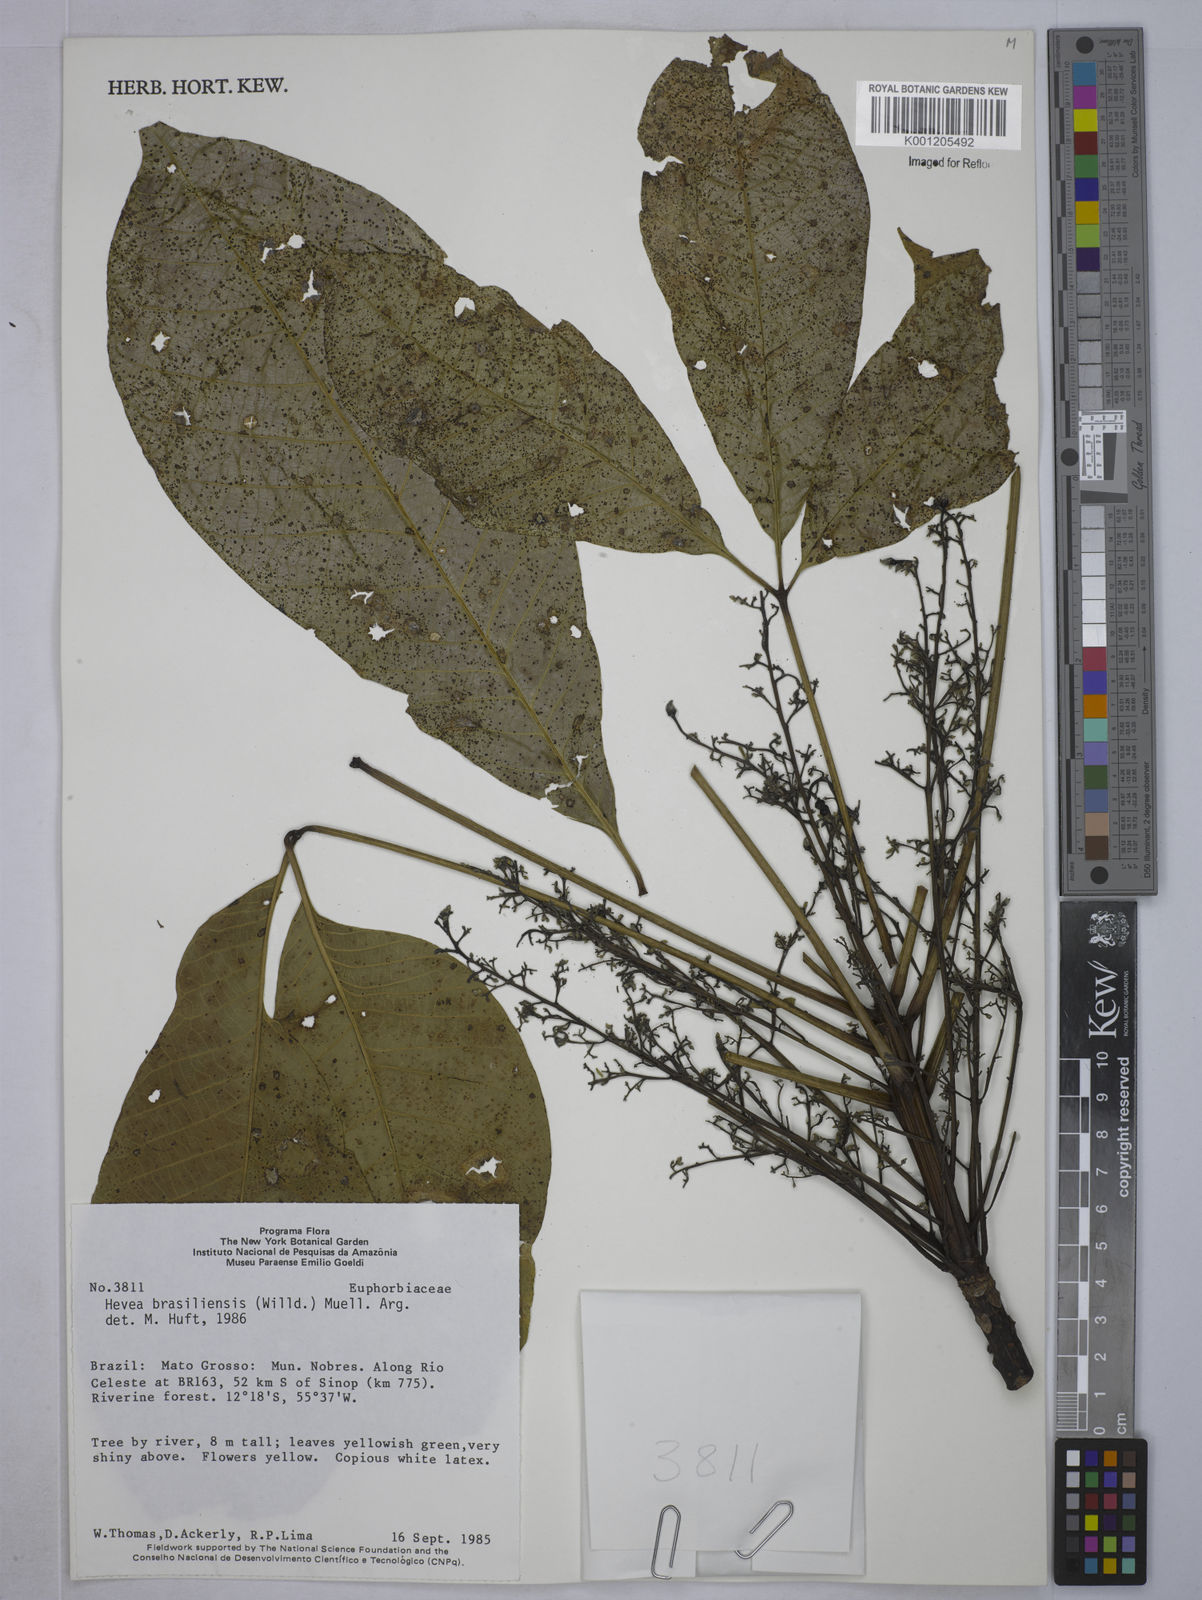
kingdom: Plantae
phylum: Tracheophyta
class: Magnoliopsida
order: Malpighiales
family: Euphorbiaceae
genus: Hevea
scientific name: Hevea
